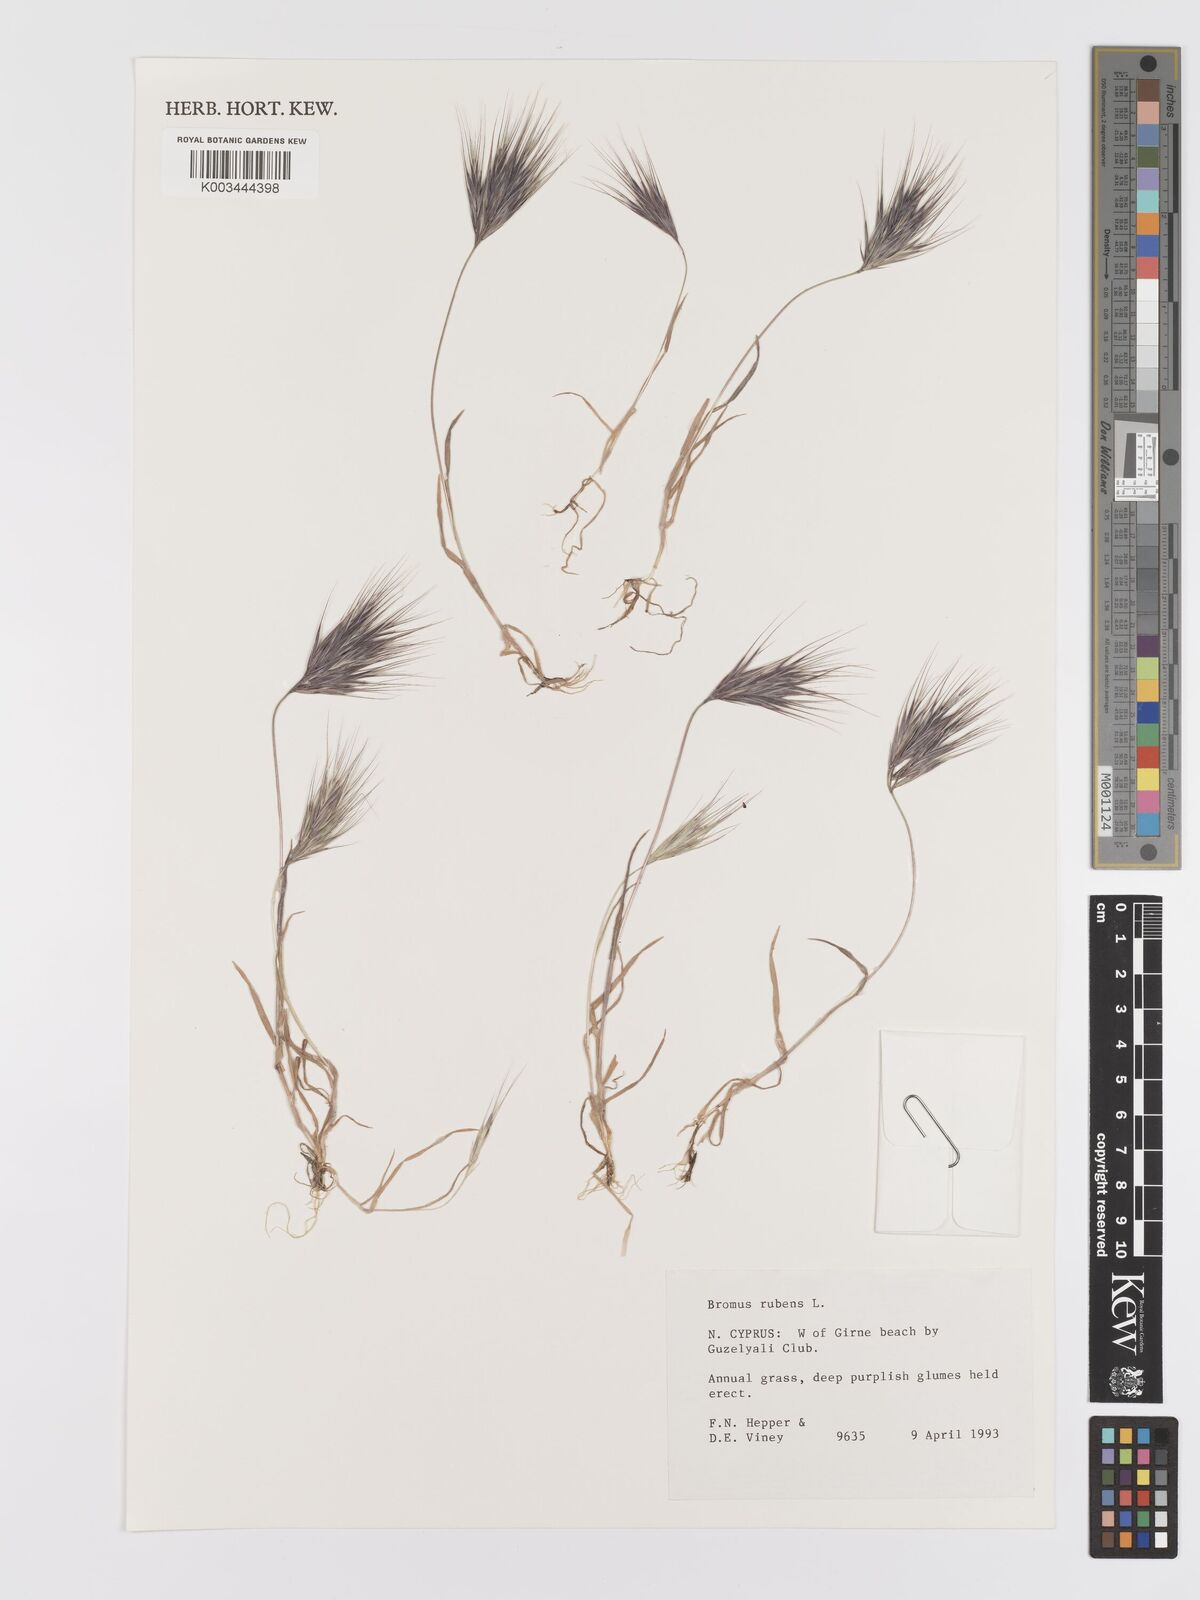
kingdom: Plantae
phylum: Tracheophyta
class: Liliopsida
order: Poales
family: Poaceae
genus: Bromus
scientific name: Bromus rubens
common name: Red brome
